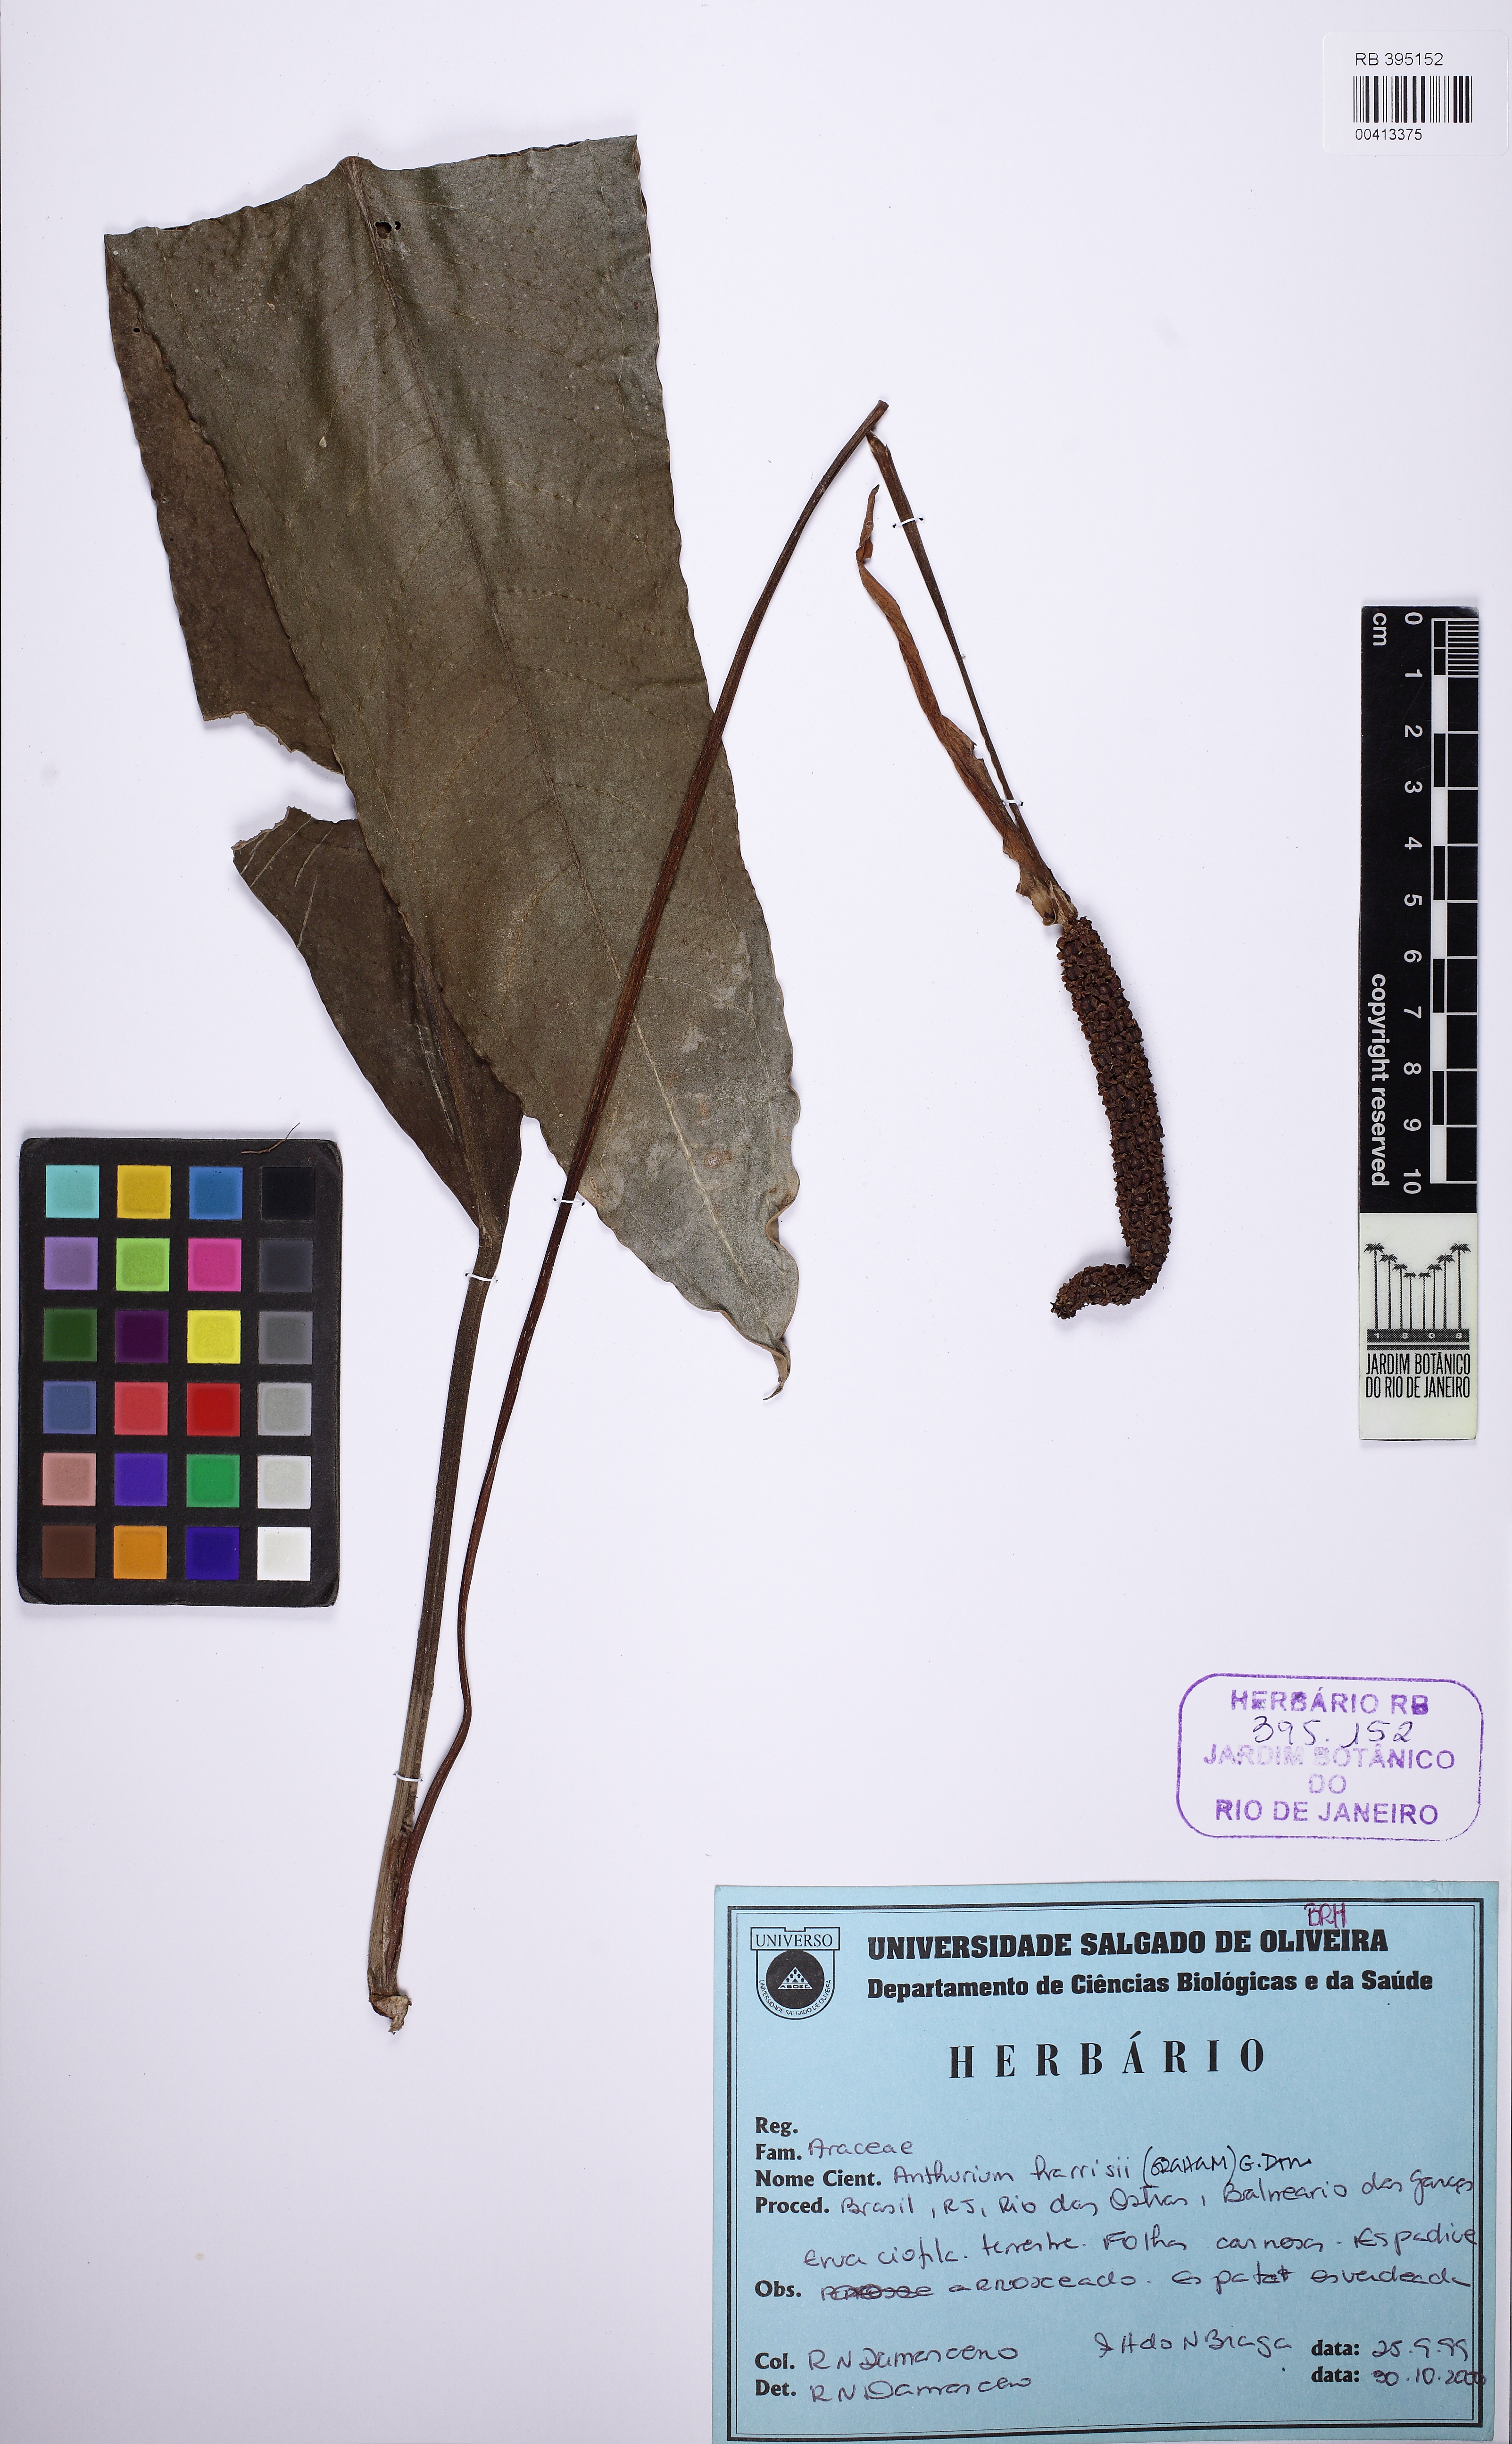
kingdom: Plantae
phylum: Tracheophyta
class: Liliopsida
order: Alismatales
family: Araceae
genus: Anthurium
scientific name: Anthurium harrisii
